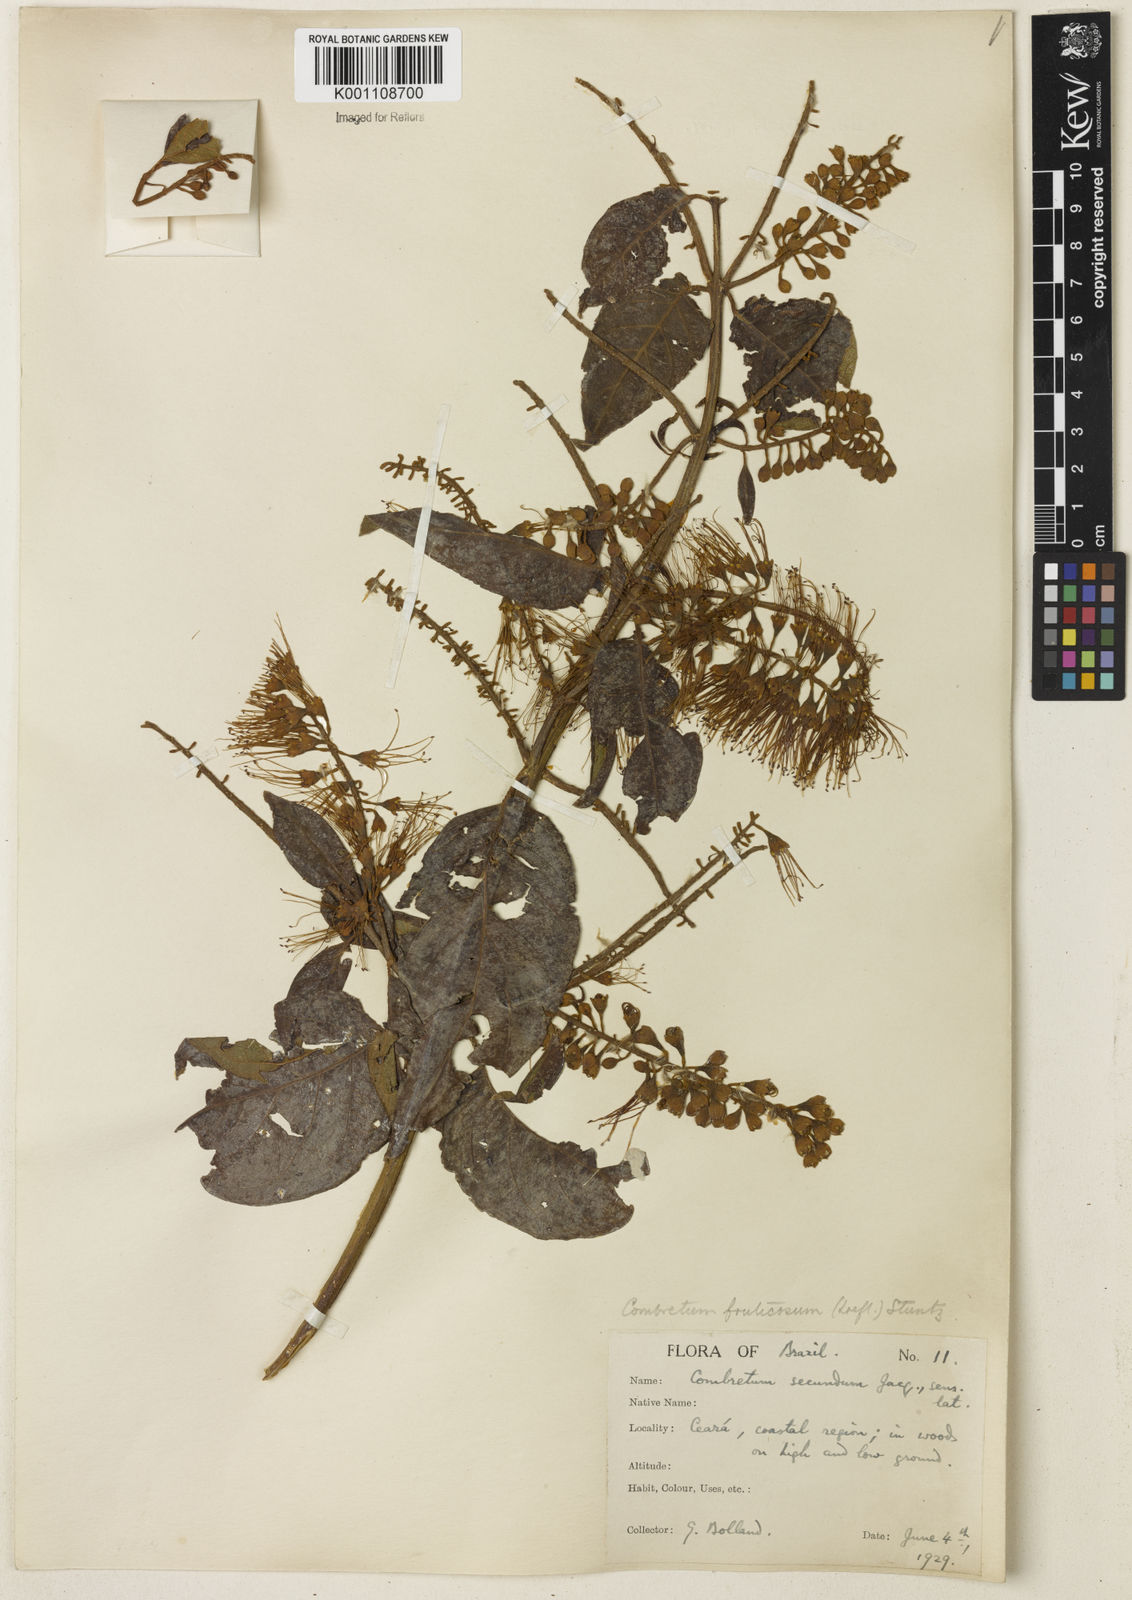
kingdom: Plantae
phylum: Tracheophyta
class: Magnoliopsida
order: Myrtales
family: Combretaceae
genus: Combretum
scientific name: Combretum fruticosum
